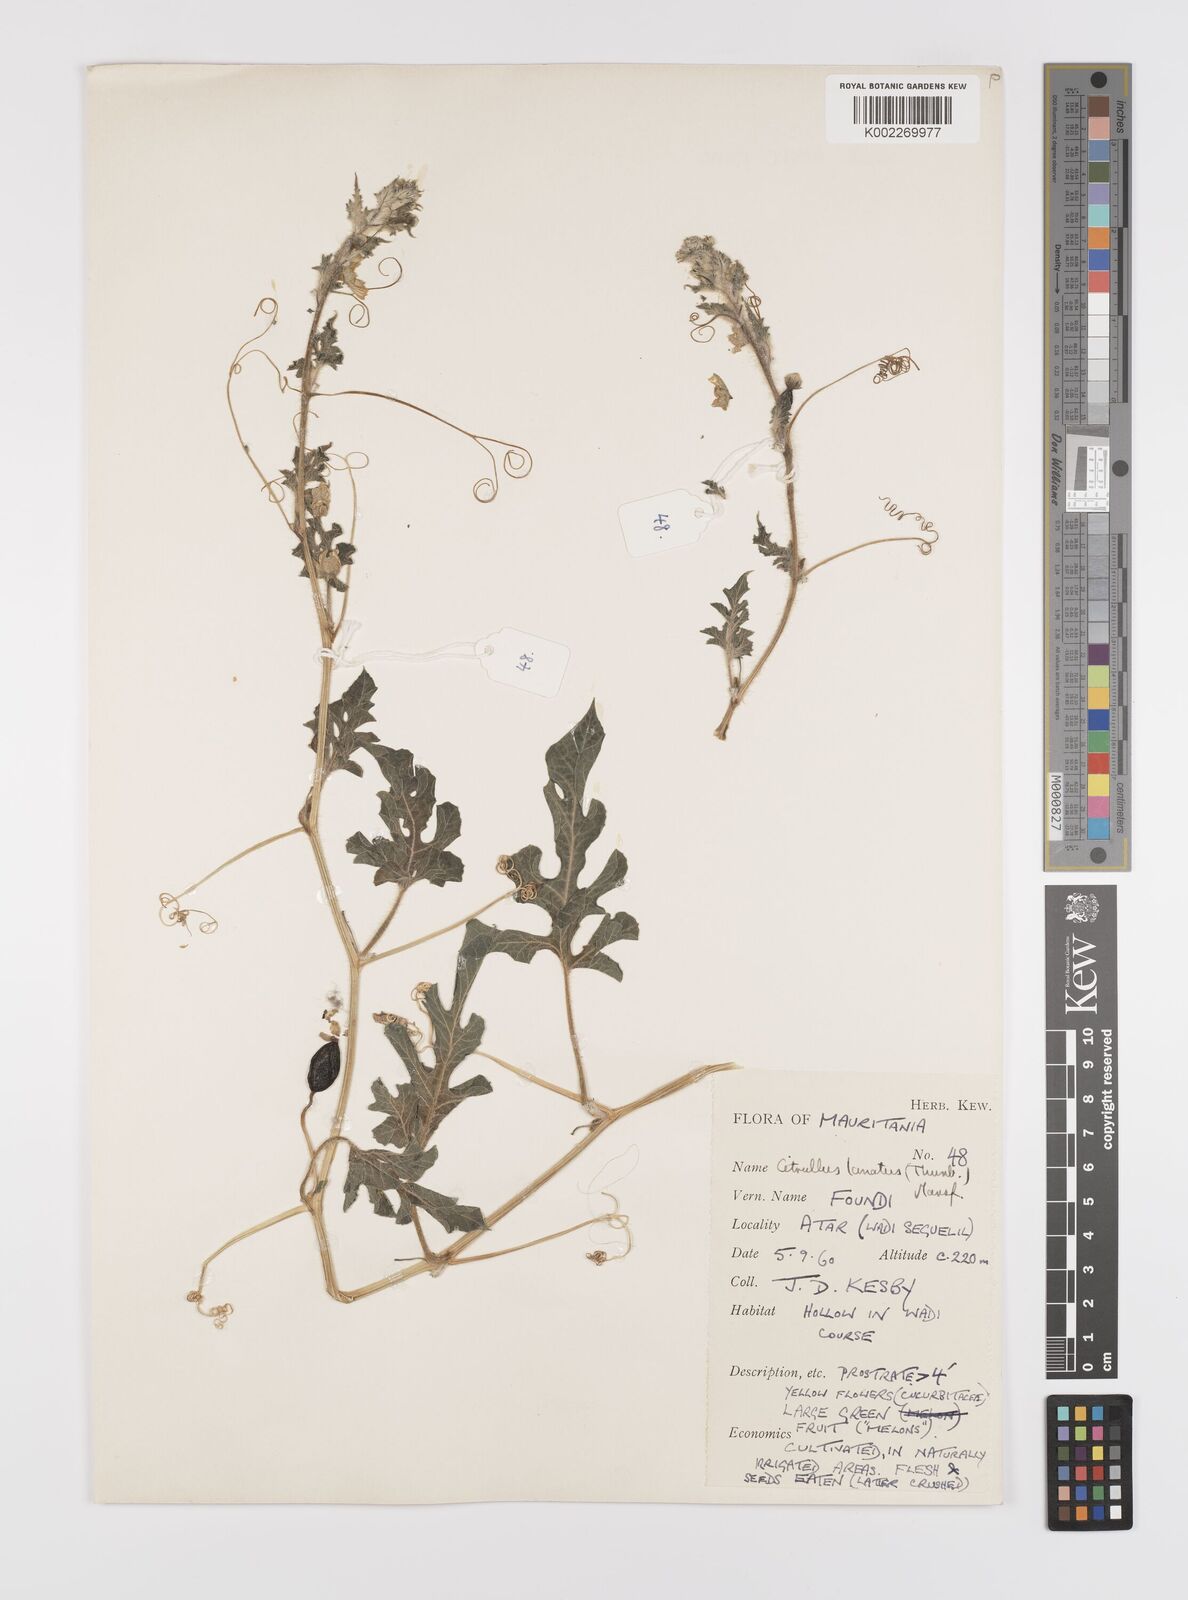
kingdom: Plantae
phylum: Tracheophyta
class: Magnoliopsida
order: Cucurbitales
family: Cucurbitaceae
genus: Citrullus
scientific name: Citrullus lanatus
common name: Watermelon
